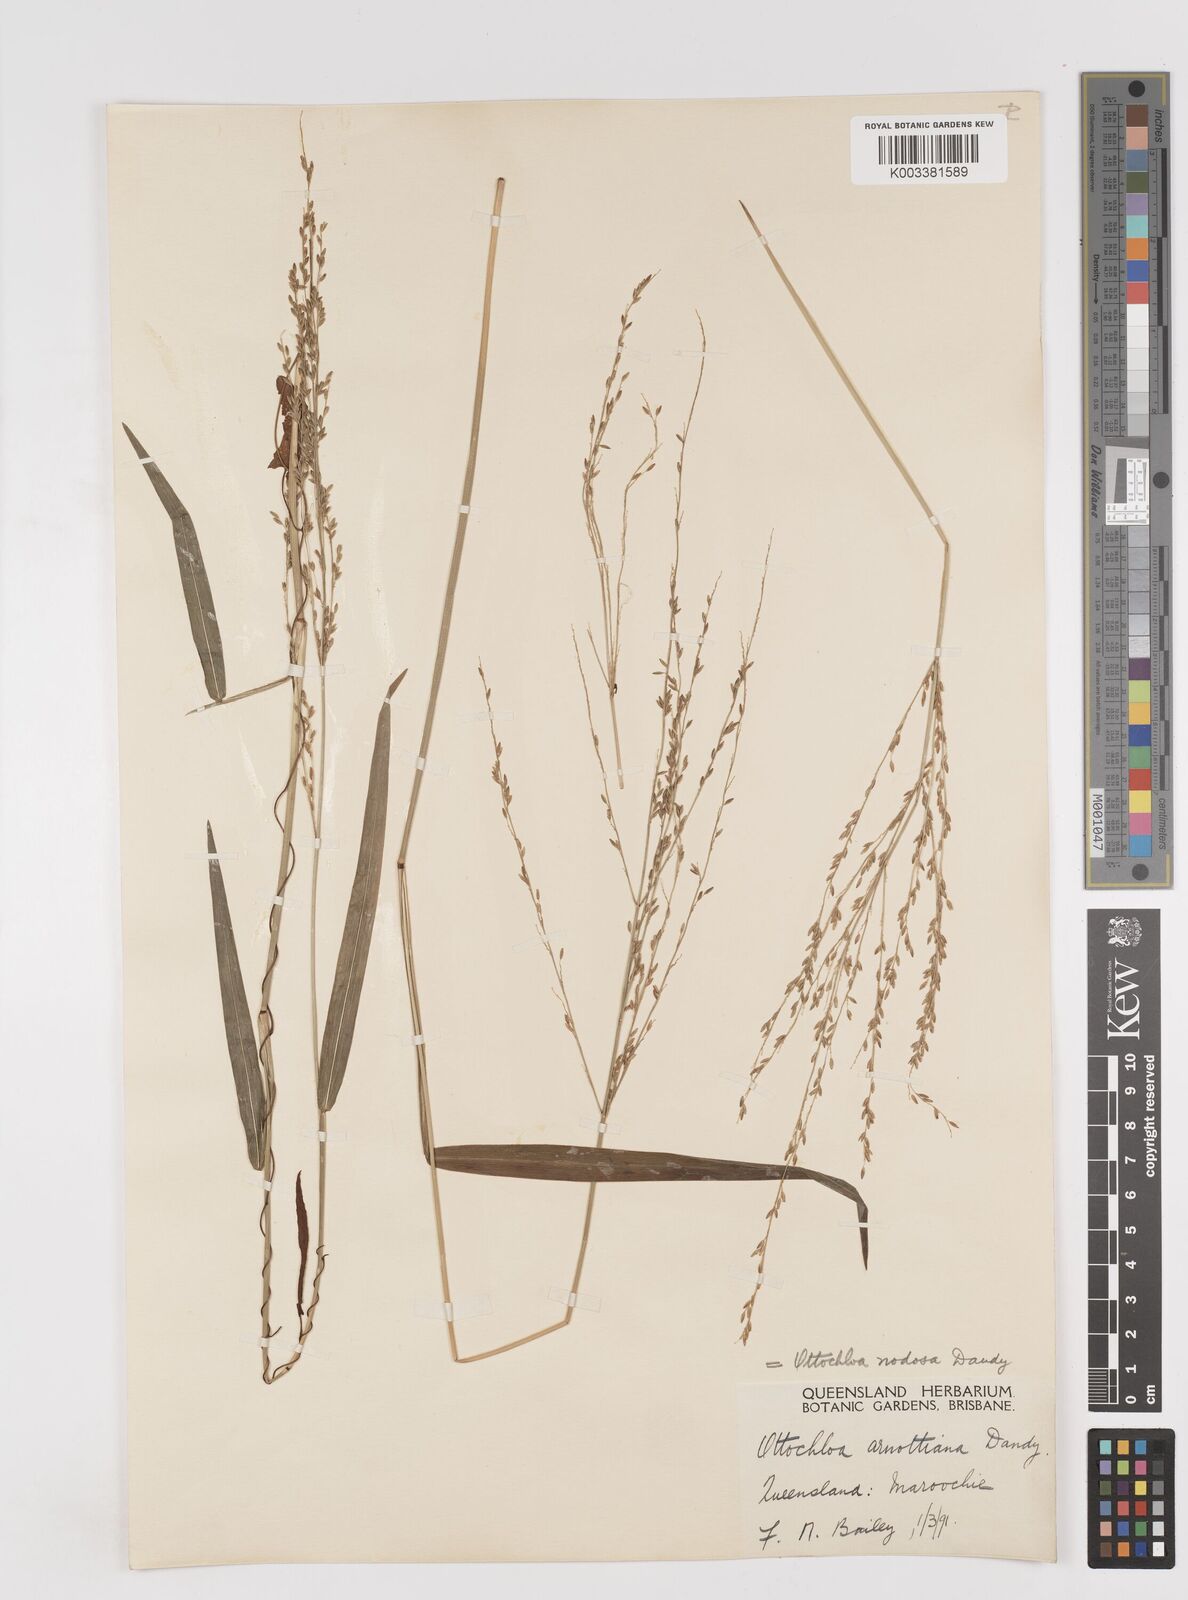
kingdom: Plantae
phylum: Tracheophyta
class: Liliopsida
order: Poales
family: Poaceae
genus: Ottochloa
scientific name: Ottochloa nodosa
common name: Slender-panic grass
